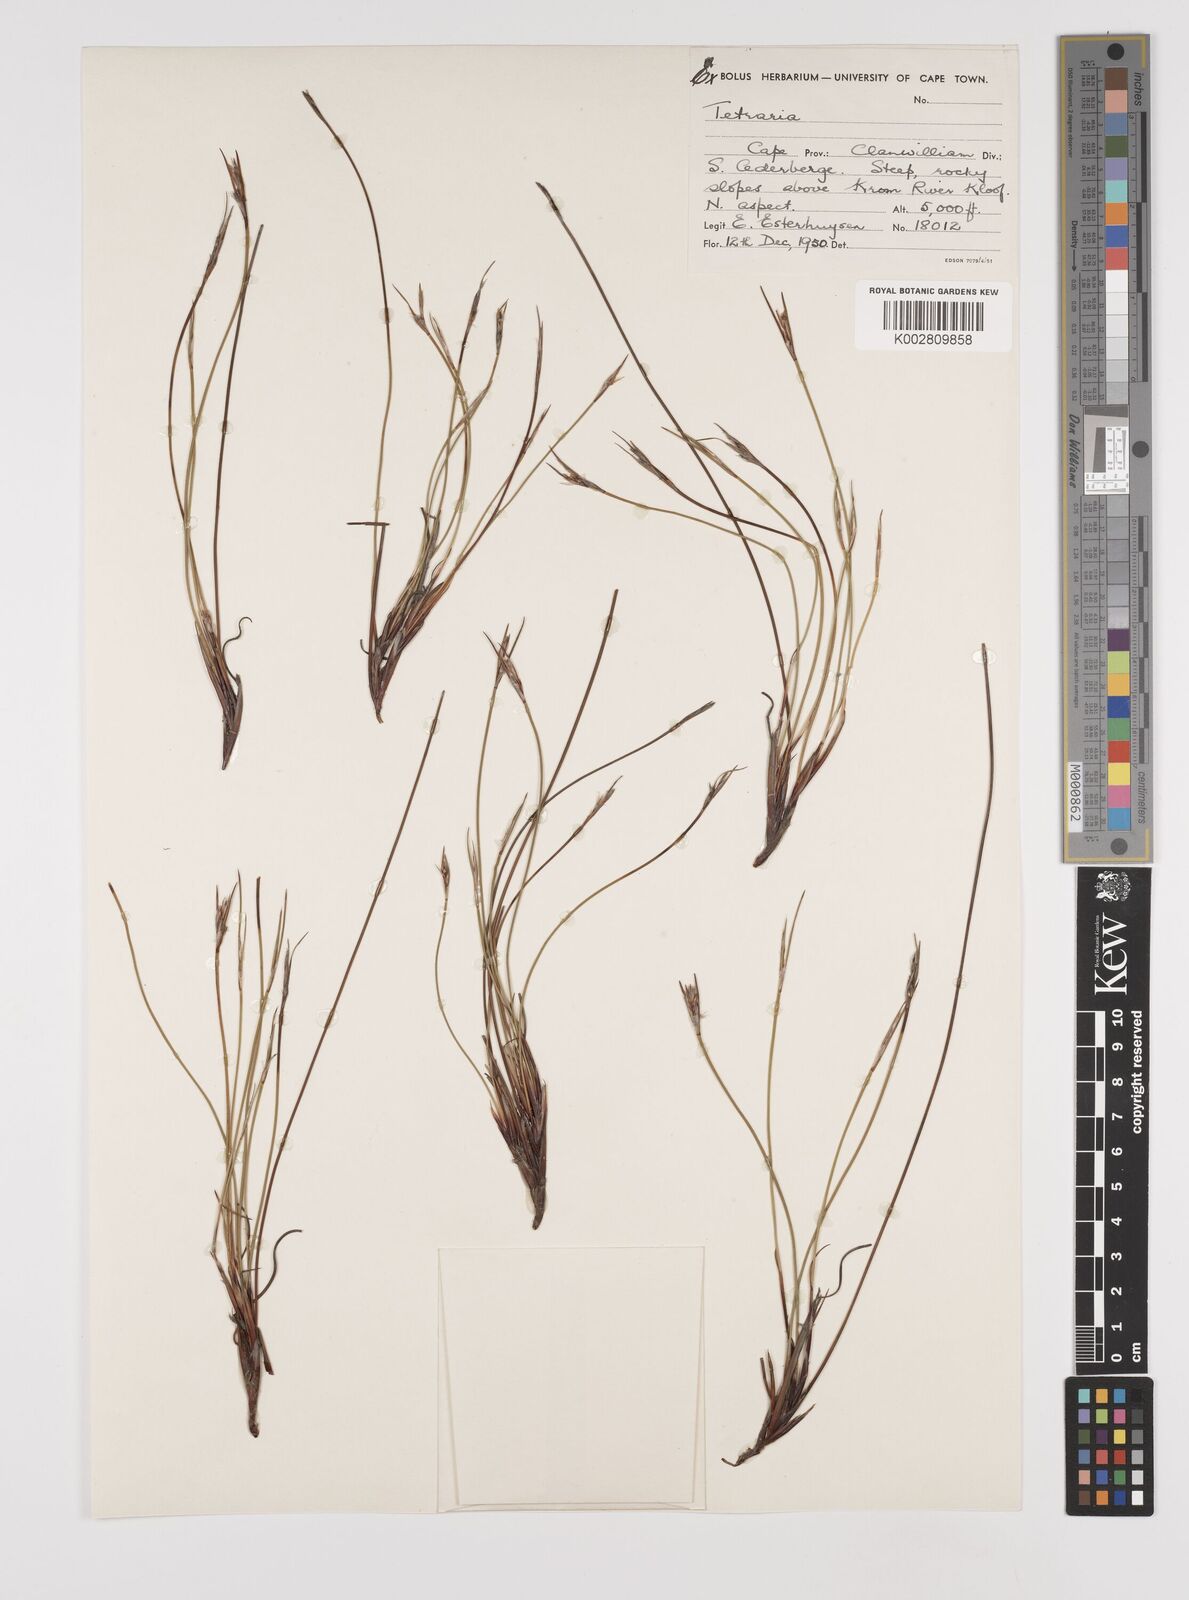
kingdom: Plantae
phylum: Tracheophyta
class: Liliopsida
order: Poales
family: Cyperaceae
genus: Schoenus
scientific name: Schoenus pseudoloreus
